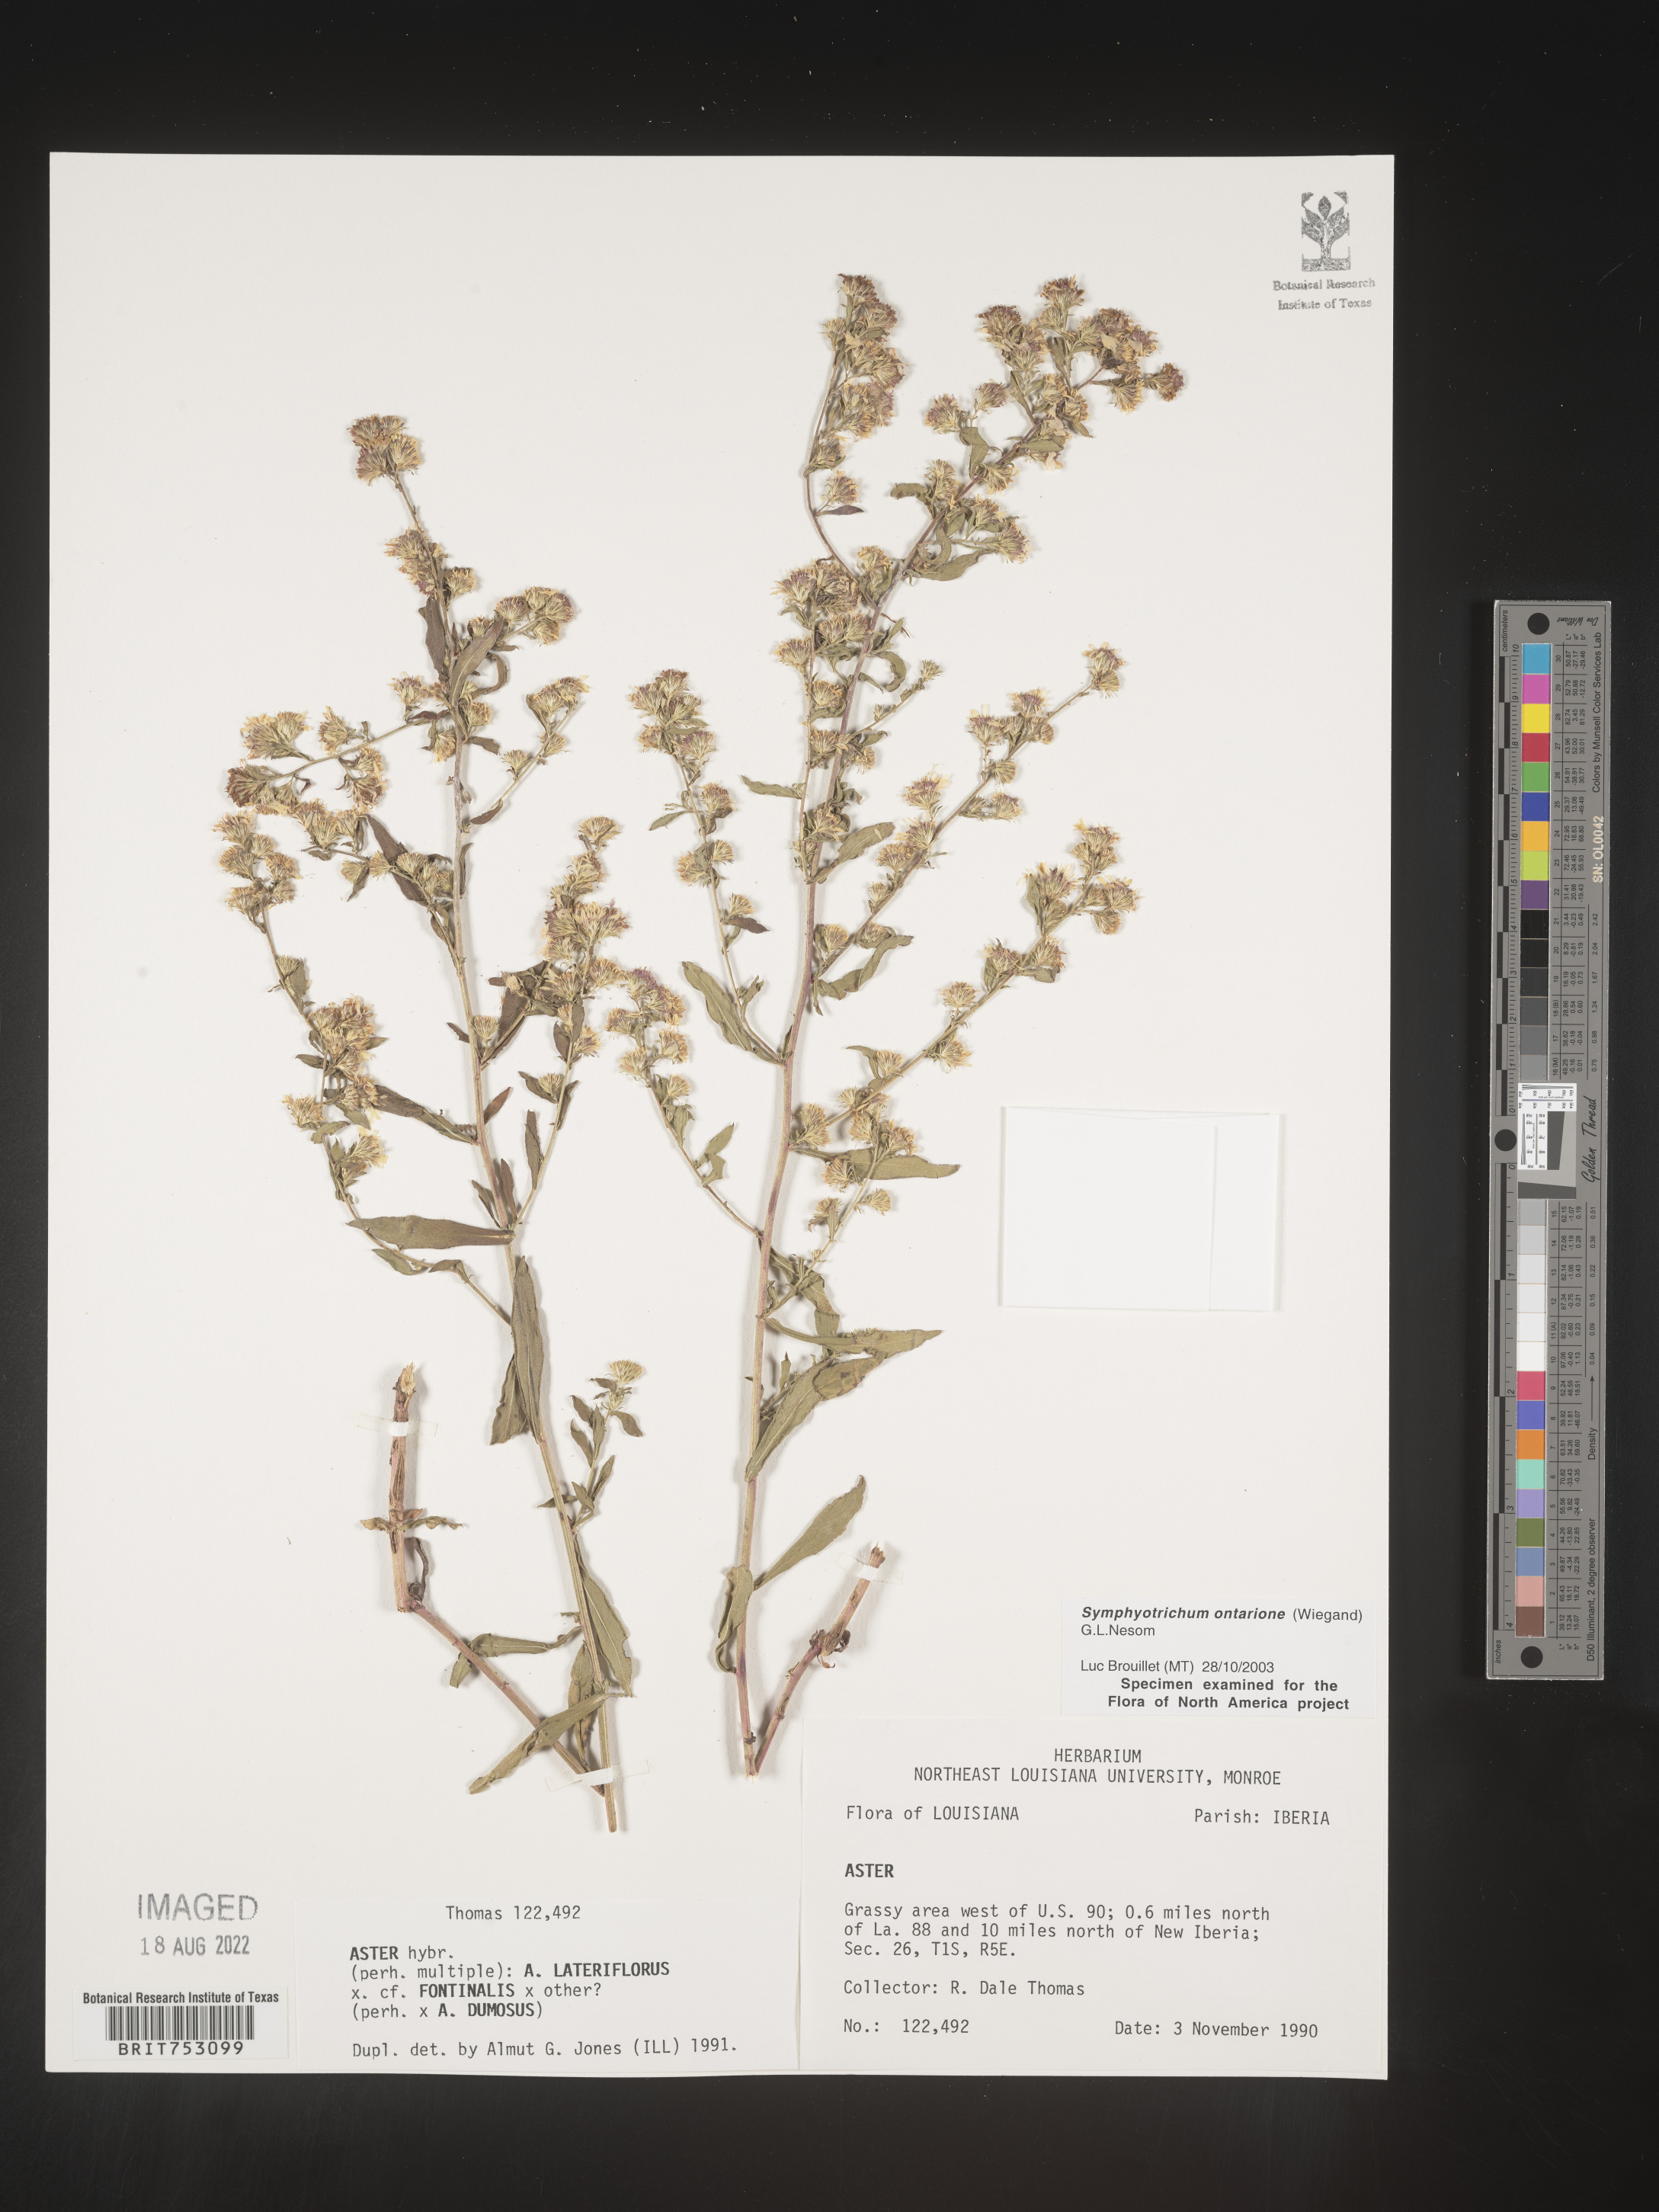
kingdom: Plantae
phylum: Tracheophyta
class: Magnoliopsida
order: Asterales
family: Asteraceae
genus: Symphyotrichum
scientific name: Symphyotrichum ontarionis
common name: Bottomland aster
